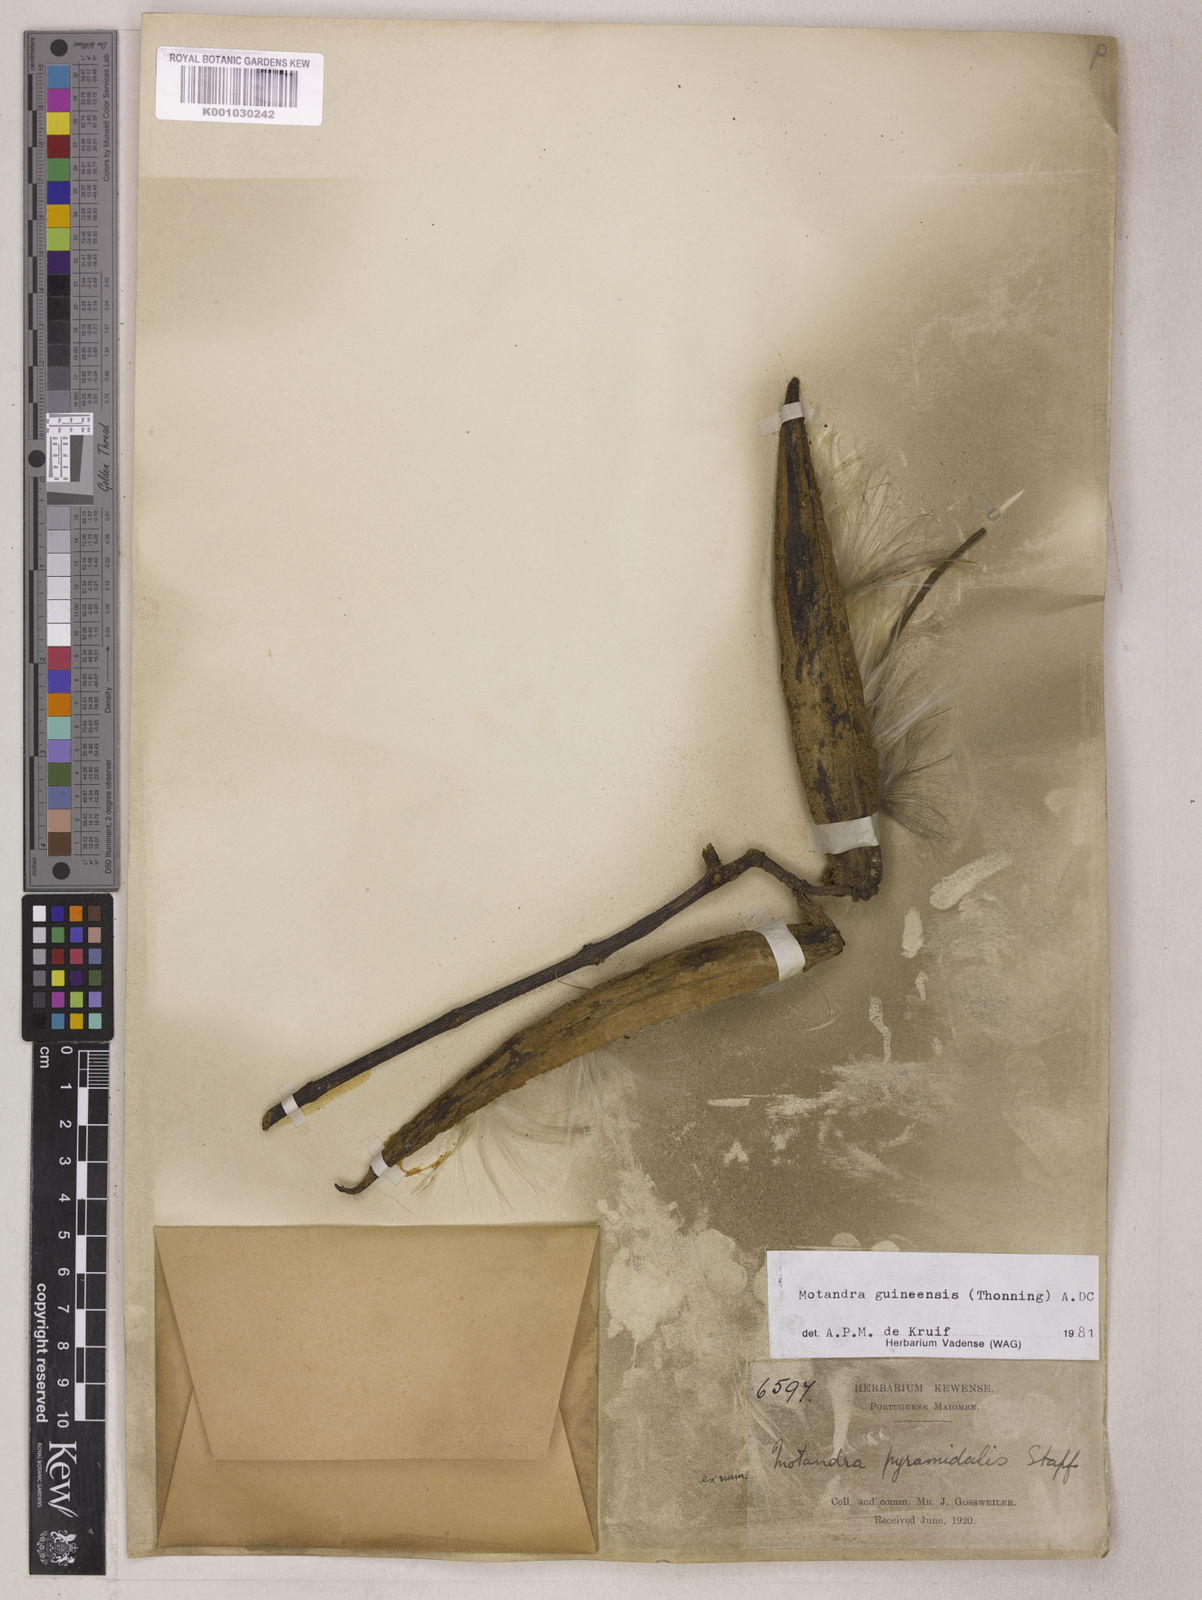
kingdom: Plantae
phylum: Tracheophyta
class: Magnoliopsida
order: Gentianales
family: Apocynaceae
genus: Motandra
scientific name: Motandra paniculata
